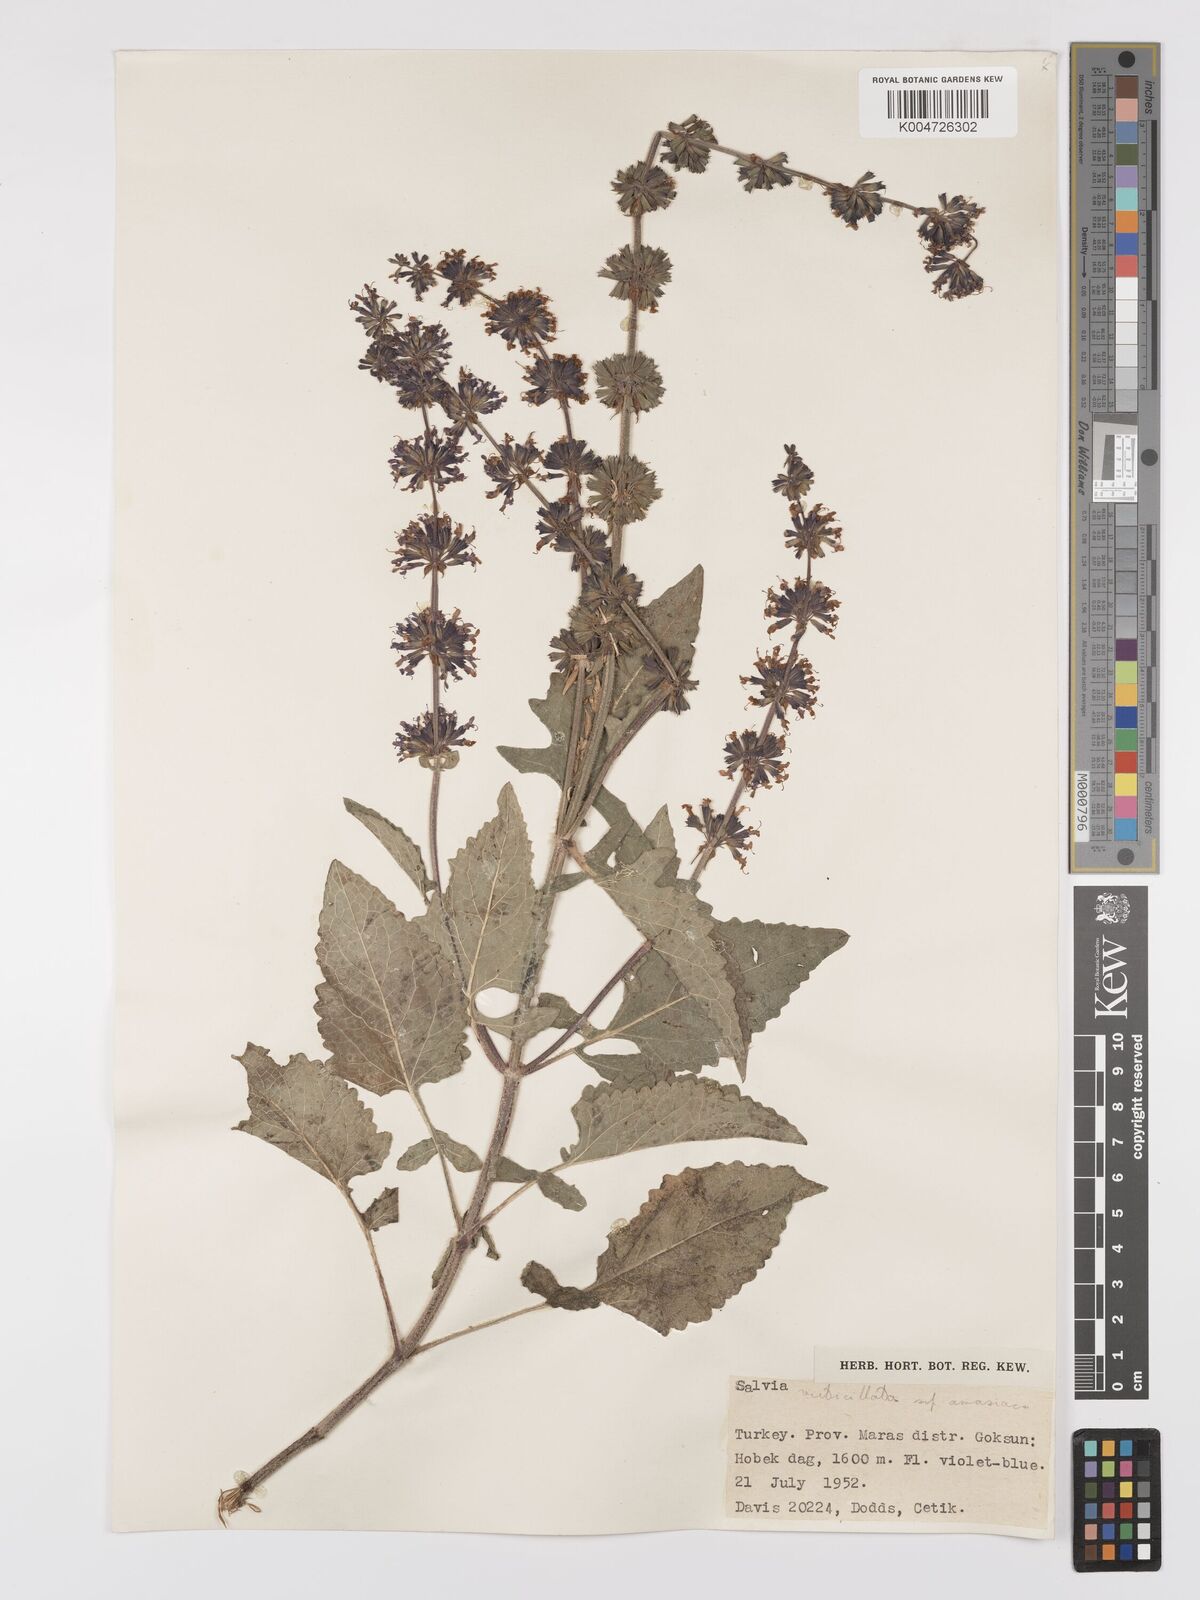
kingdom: Plantae
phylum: Tracheophyta
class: Magnoliopsida
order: Lamiales
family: Lamiaceae
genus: Salvia
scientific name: Salvia verticillata
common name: Whorled clary
